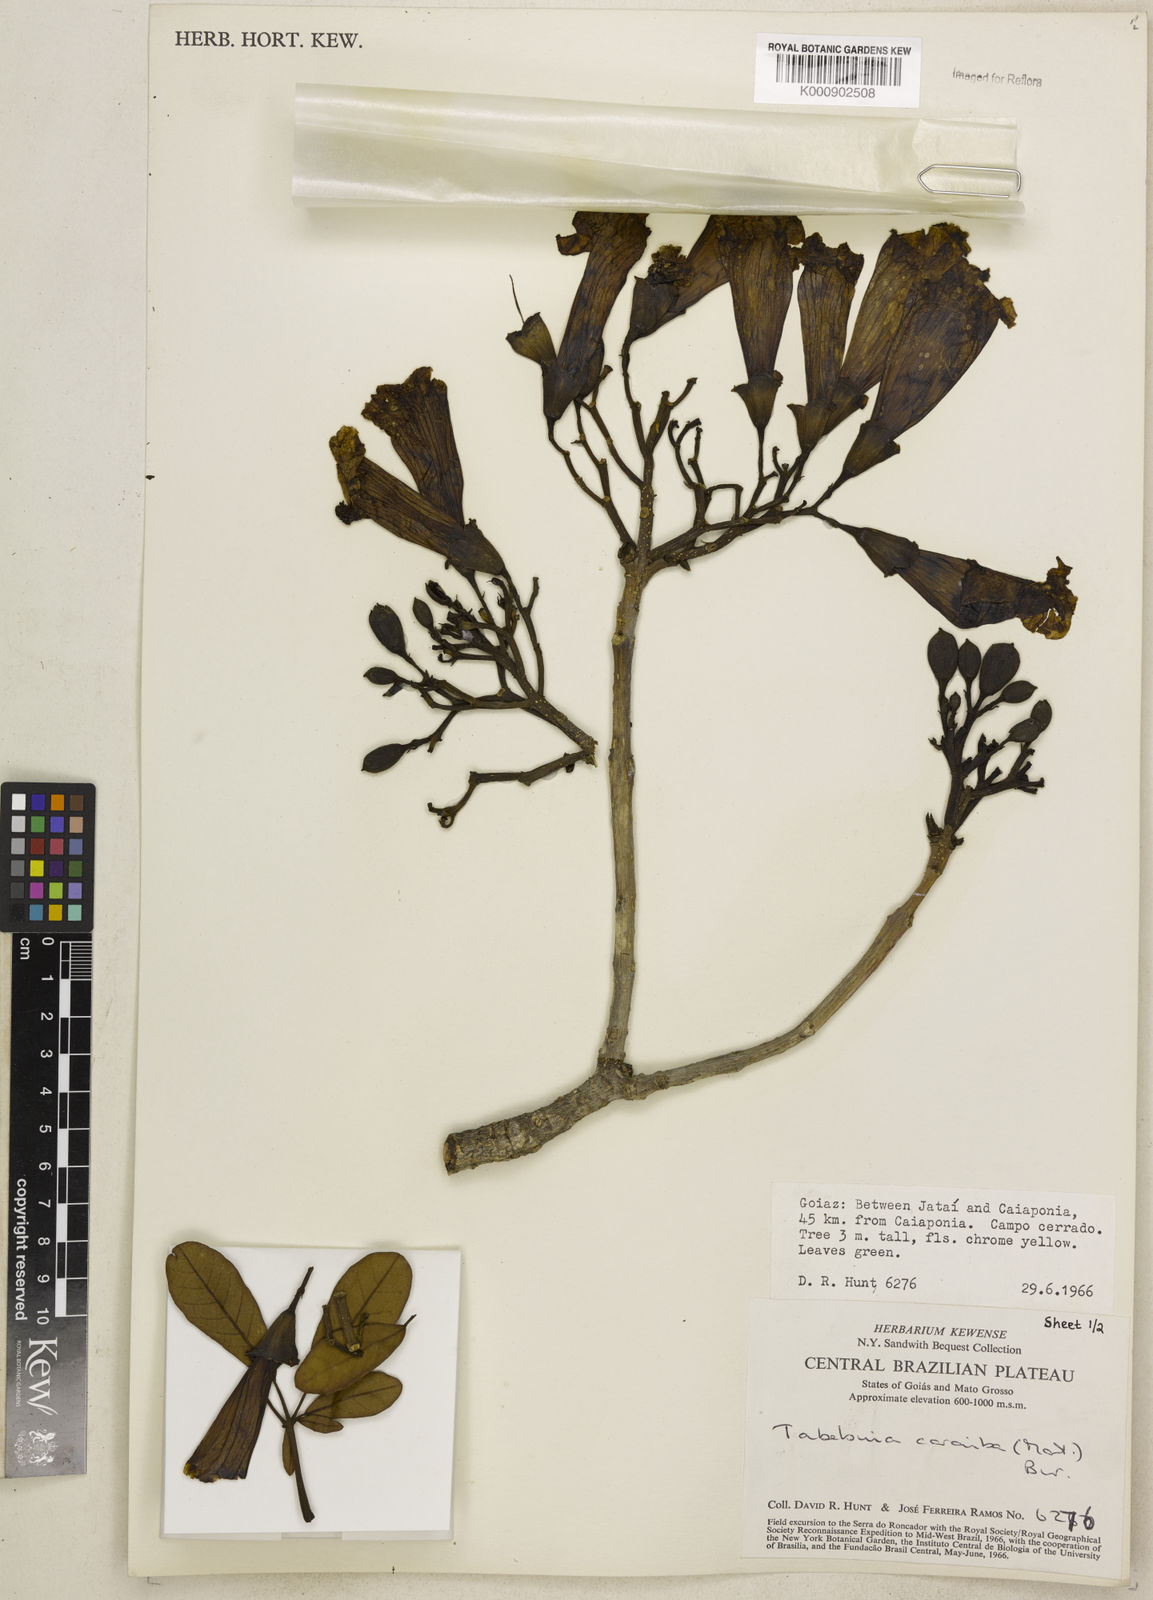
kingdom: Plantae
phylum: Tracheophyta
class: Magnoliopsida
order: Lamiales
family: Bignoniaceae
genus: Tabebuia
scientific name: Tabebuia aurea
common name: Caribbean trumpet-tree
